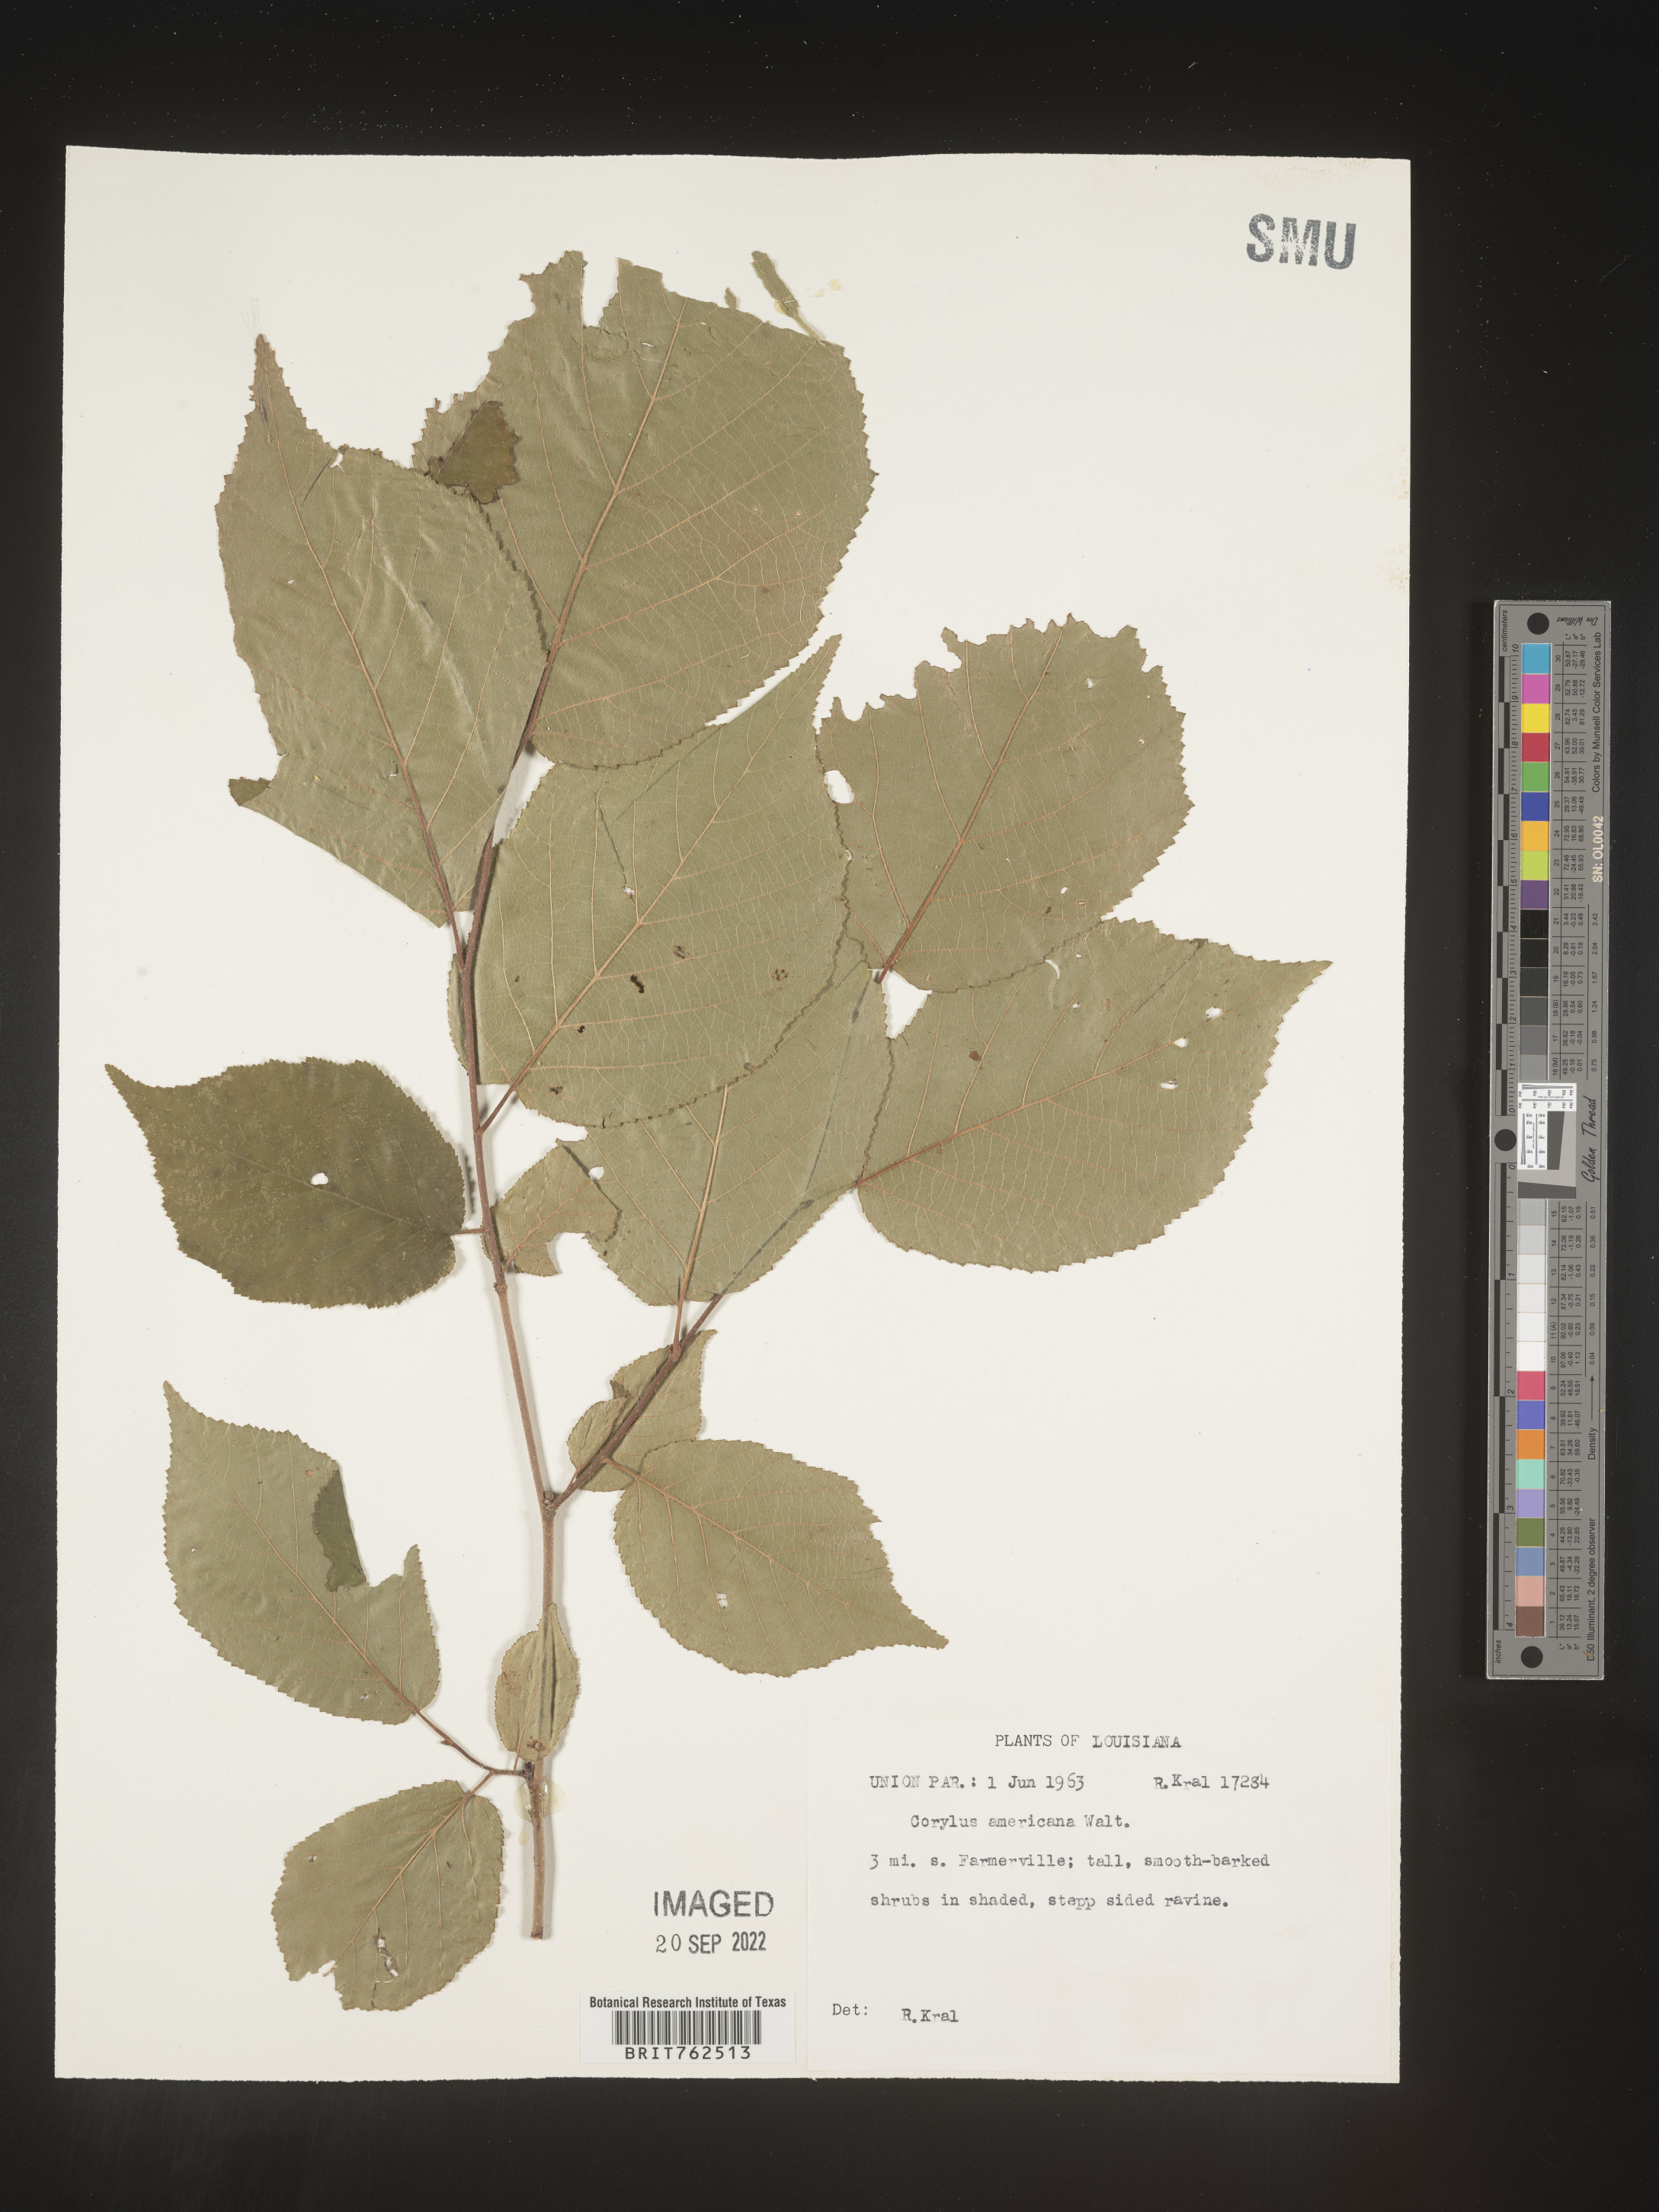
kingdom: Plantae
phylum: Tracheophyta
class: Magnoliopsida
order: Fagales
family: Betulaceae
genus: Corylus
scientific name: Corylus americana
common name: American hazel
